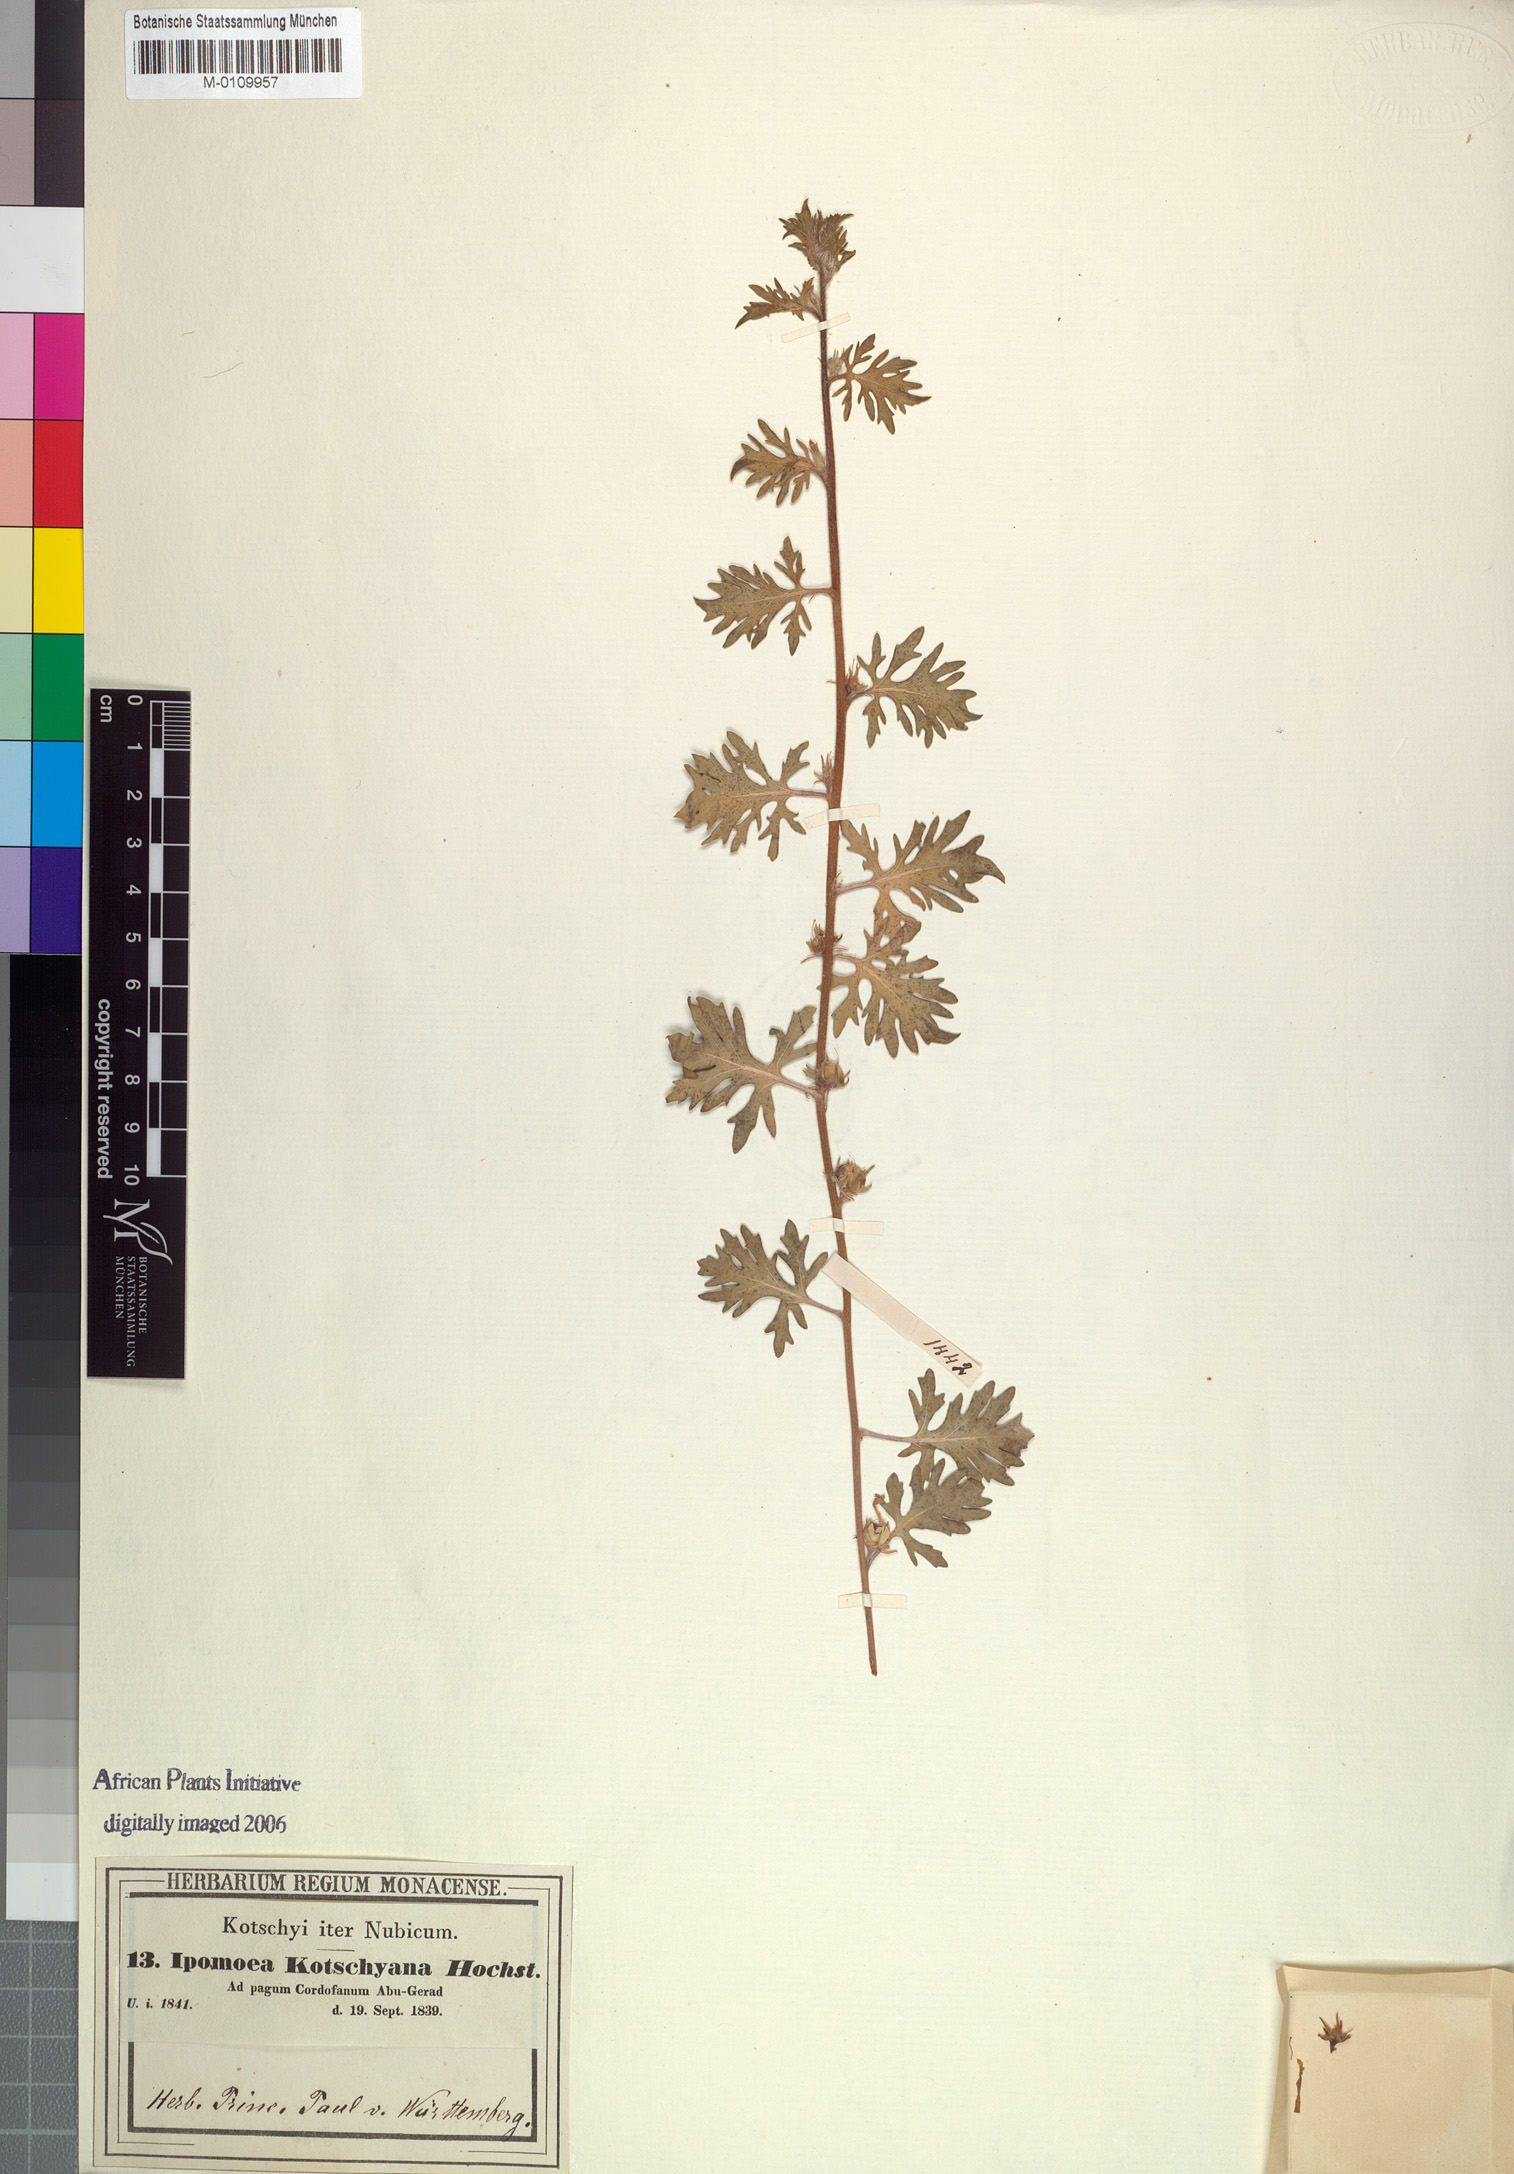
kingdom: Plantae
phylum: Tracheophyta
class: Magnoliopsida
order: Solanales
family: Convolvulaceae
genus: Ipomoea
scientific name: Ipomoea kotschyana
